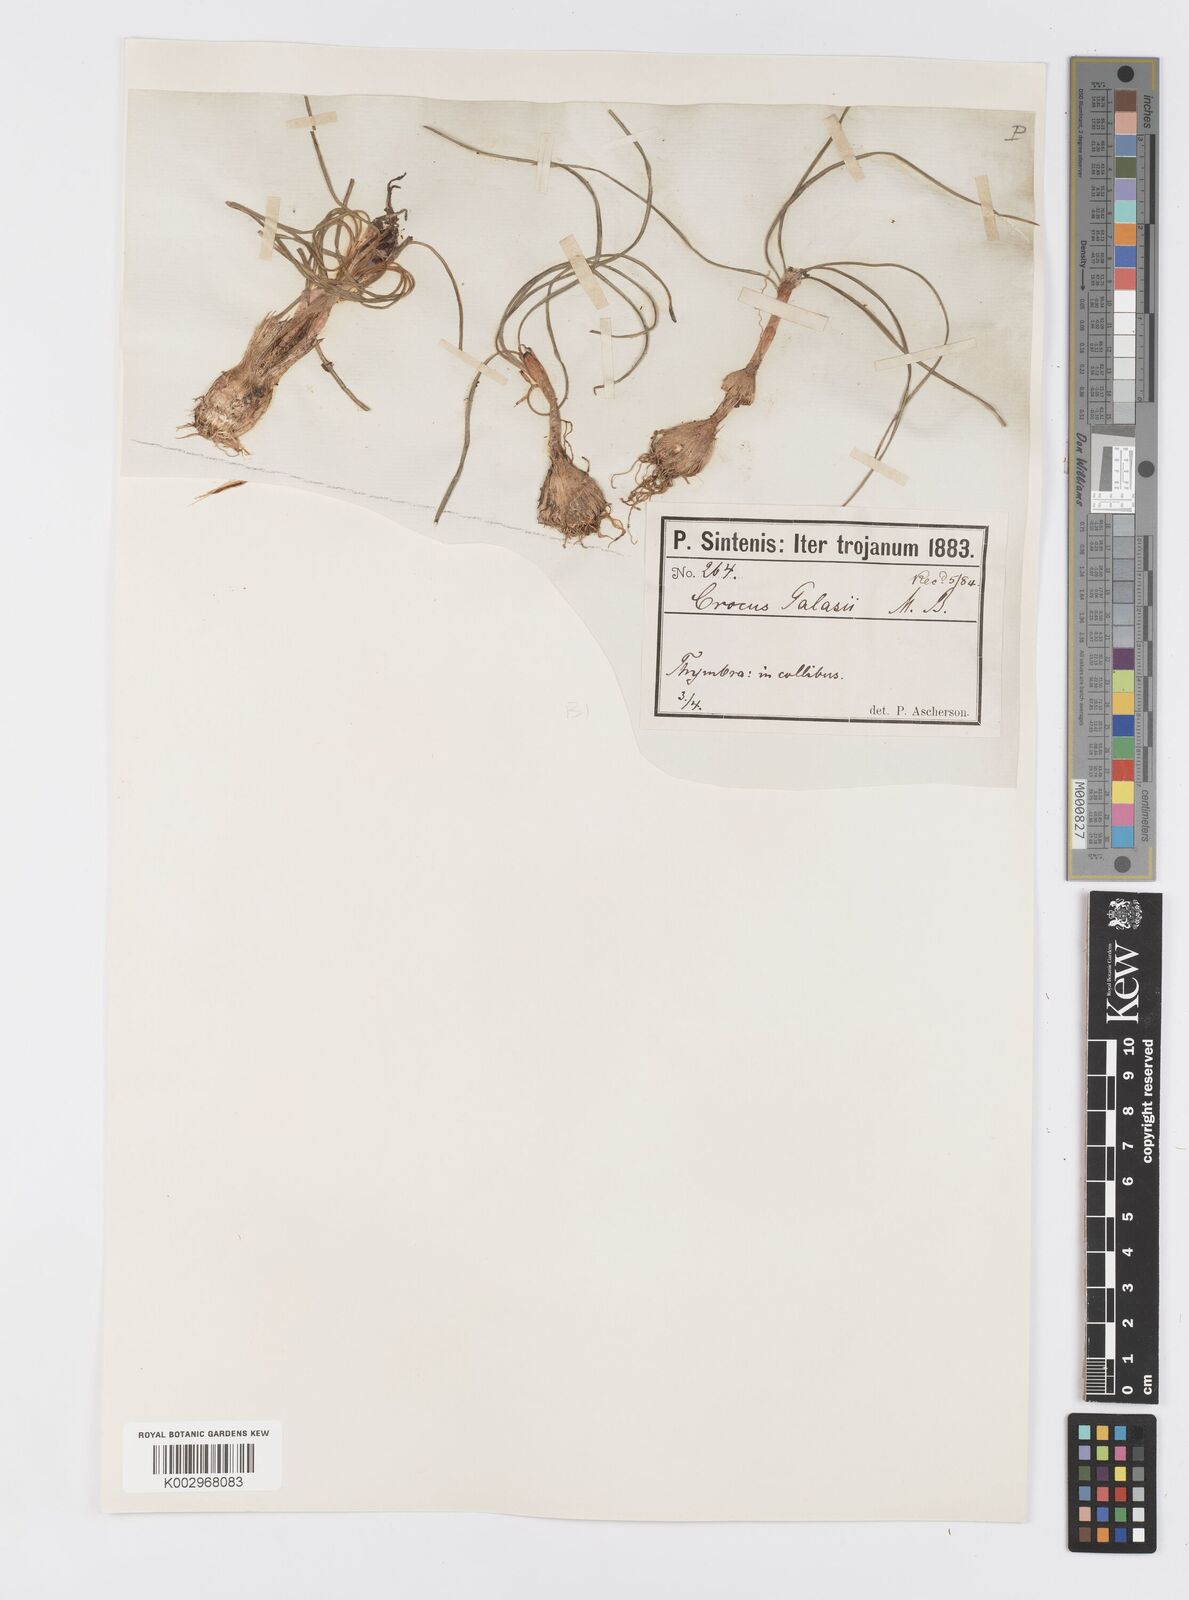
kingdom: Plantae
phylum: Tracheophyta
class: Liliopsida
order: Asparagales
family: Iridaceae
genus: Crocus
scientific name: Crocus
